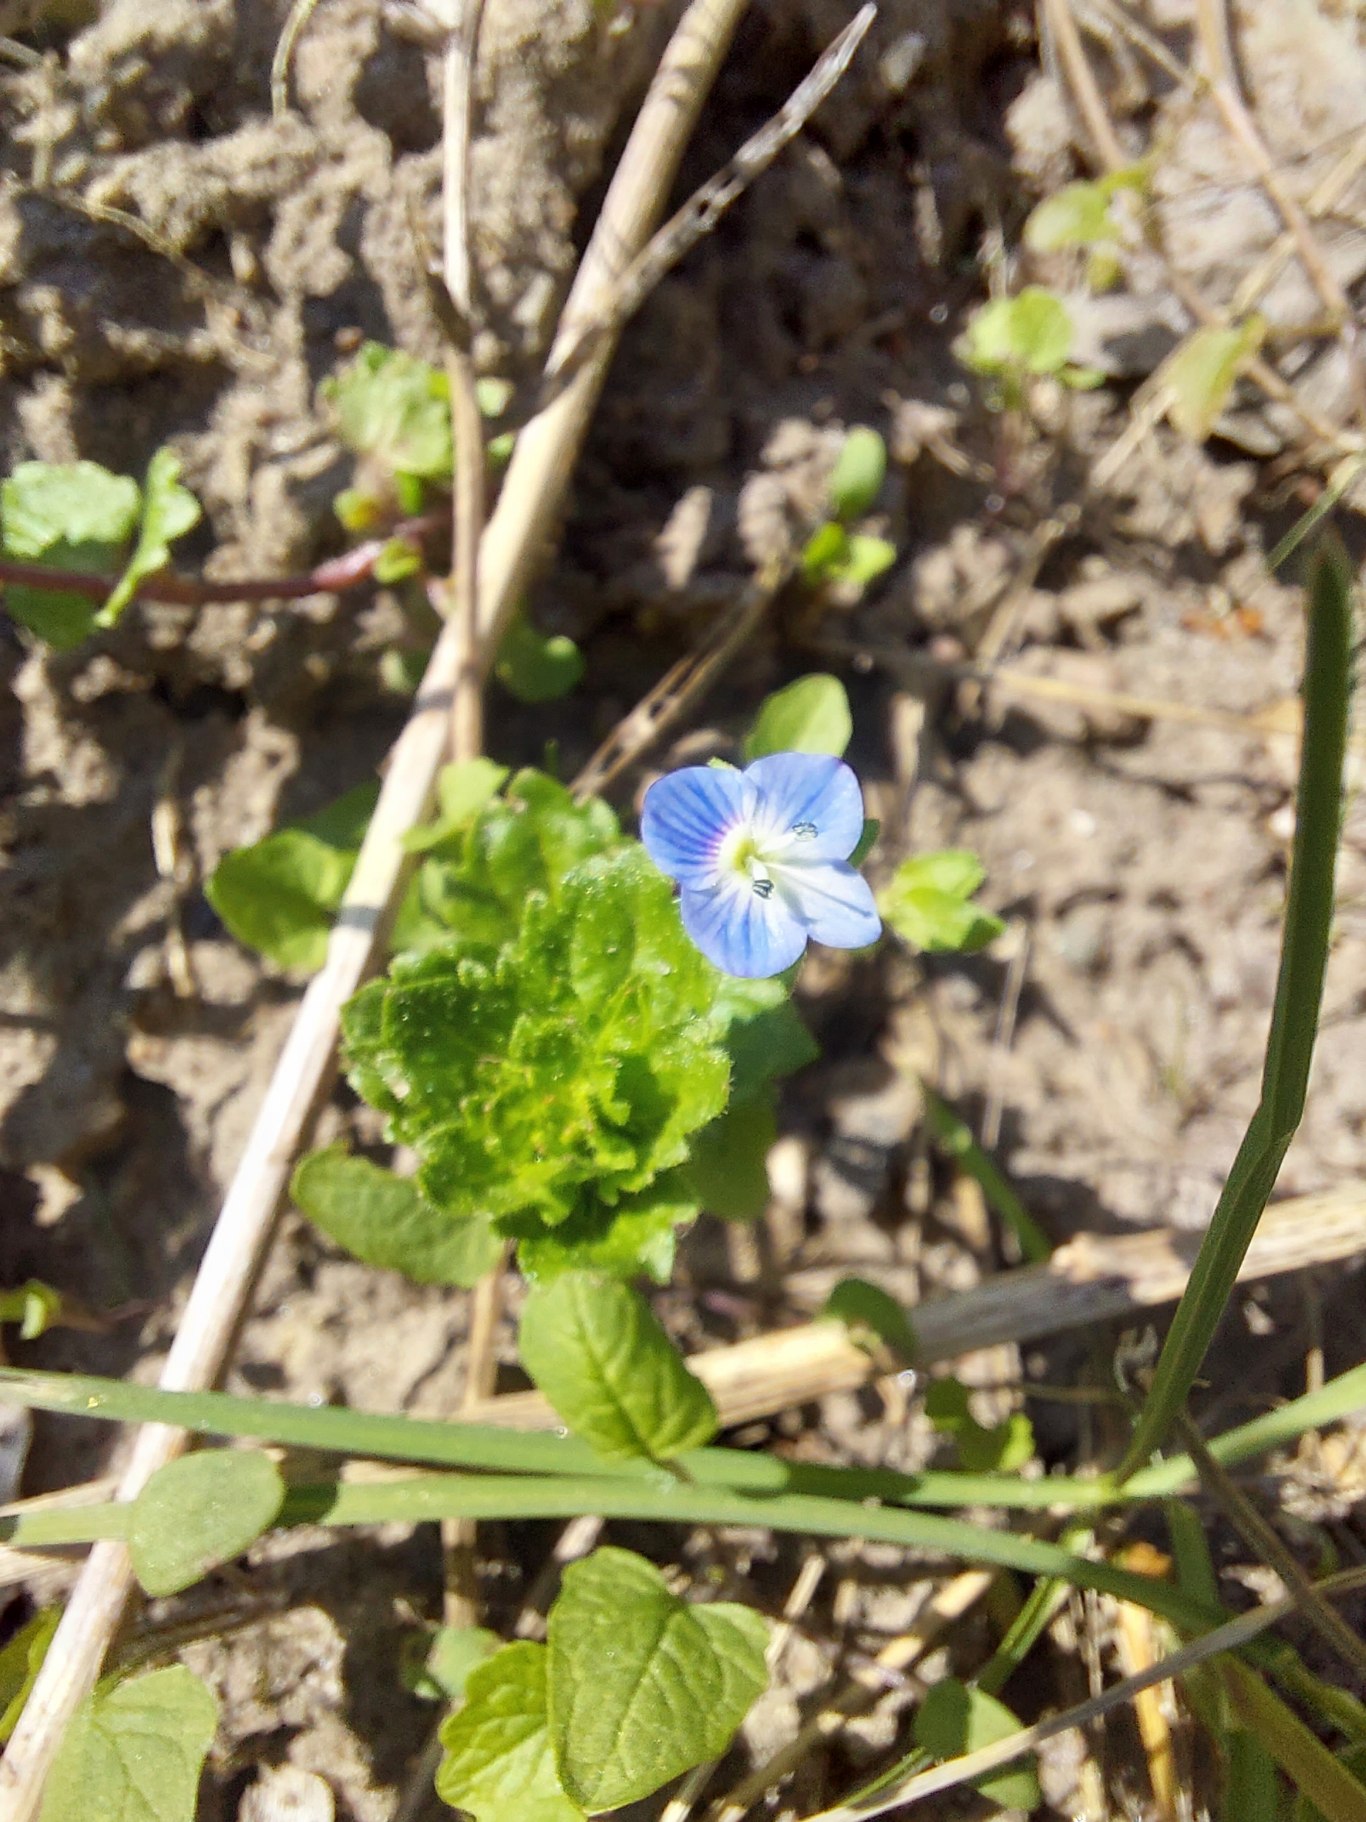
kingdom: Plantae
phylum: Tracheophyta
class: Magnoliopsida
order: Lamiales
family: Plantaginaceae
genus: Veronica
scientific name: Veronica persica
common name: Storkronet ærenpris
